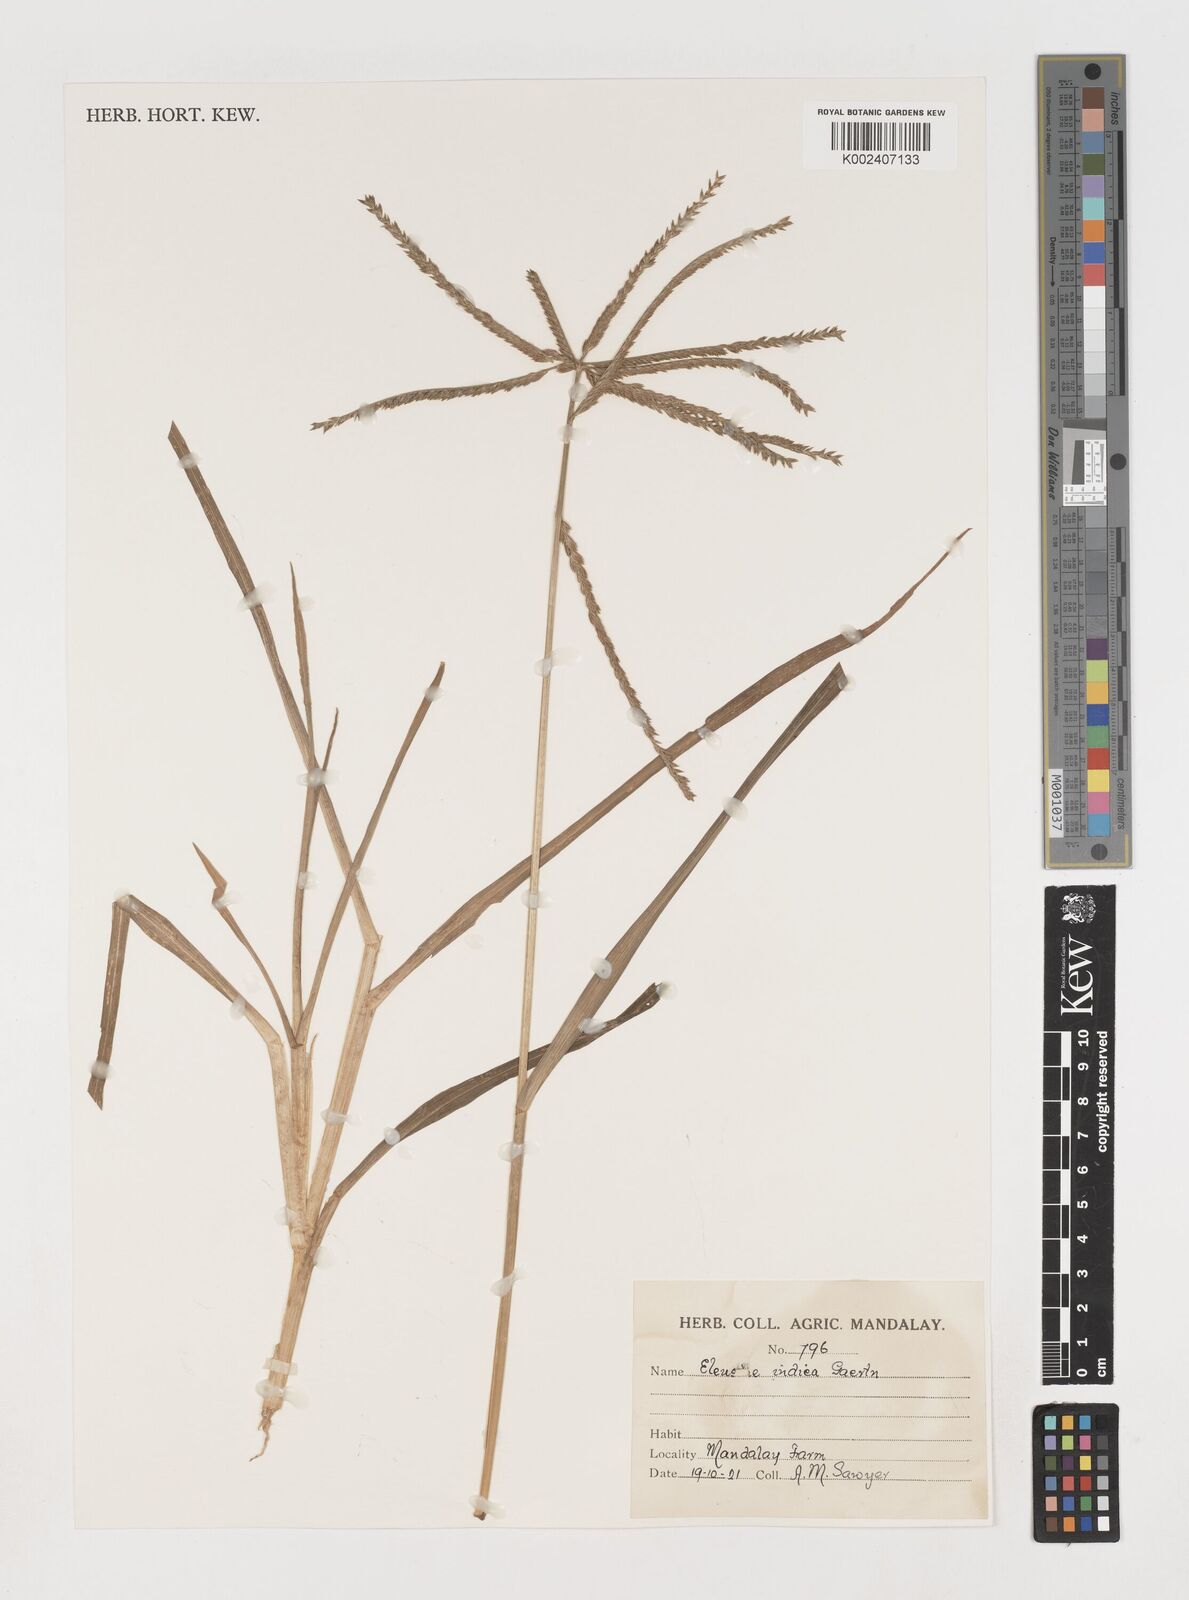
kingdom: Plantae
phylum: Tracheophyta
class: Liliopsida
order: Poales
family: Poaceae
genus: Eleusine
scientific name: Eleusine indica
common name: Yard-grass
